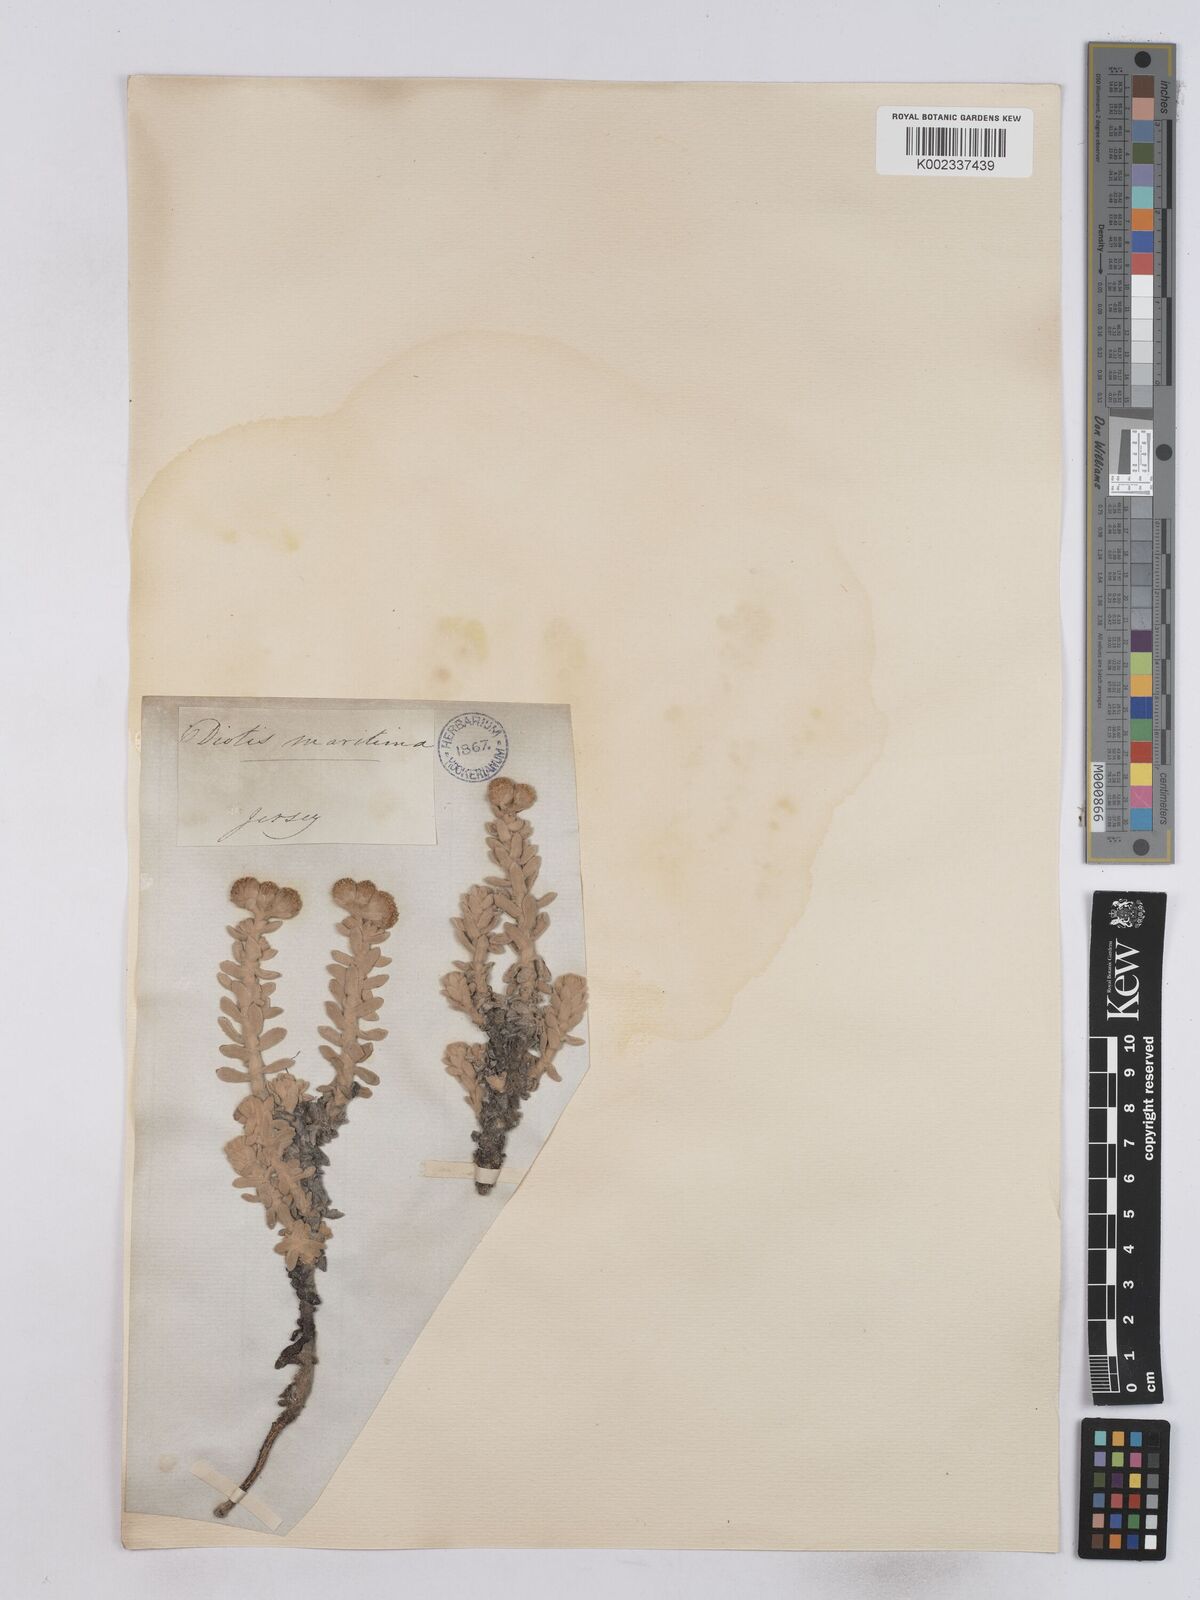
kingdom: Plantae
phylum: Tracheophyta
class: Magnoliopsida
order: Asterales
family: Asteraceae
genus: Achillea
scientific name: Achillea maritima
